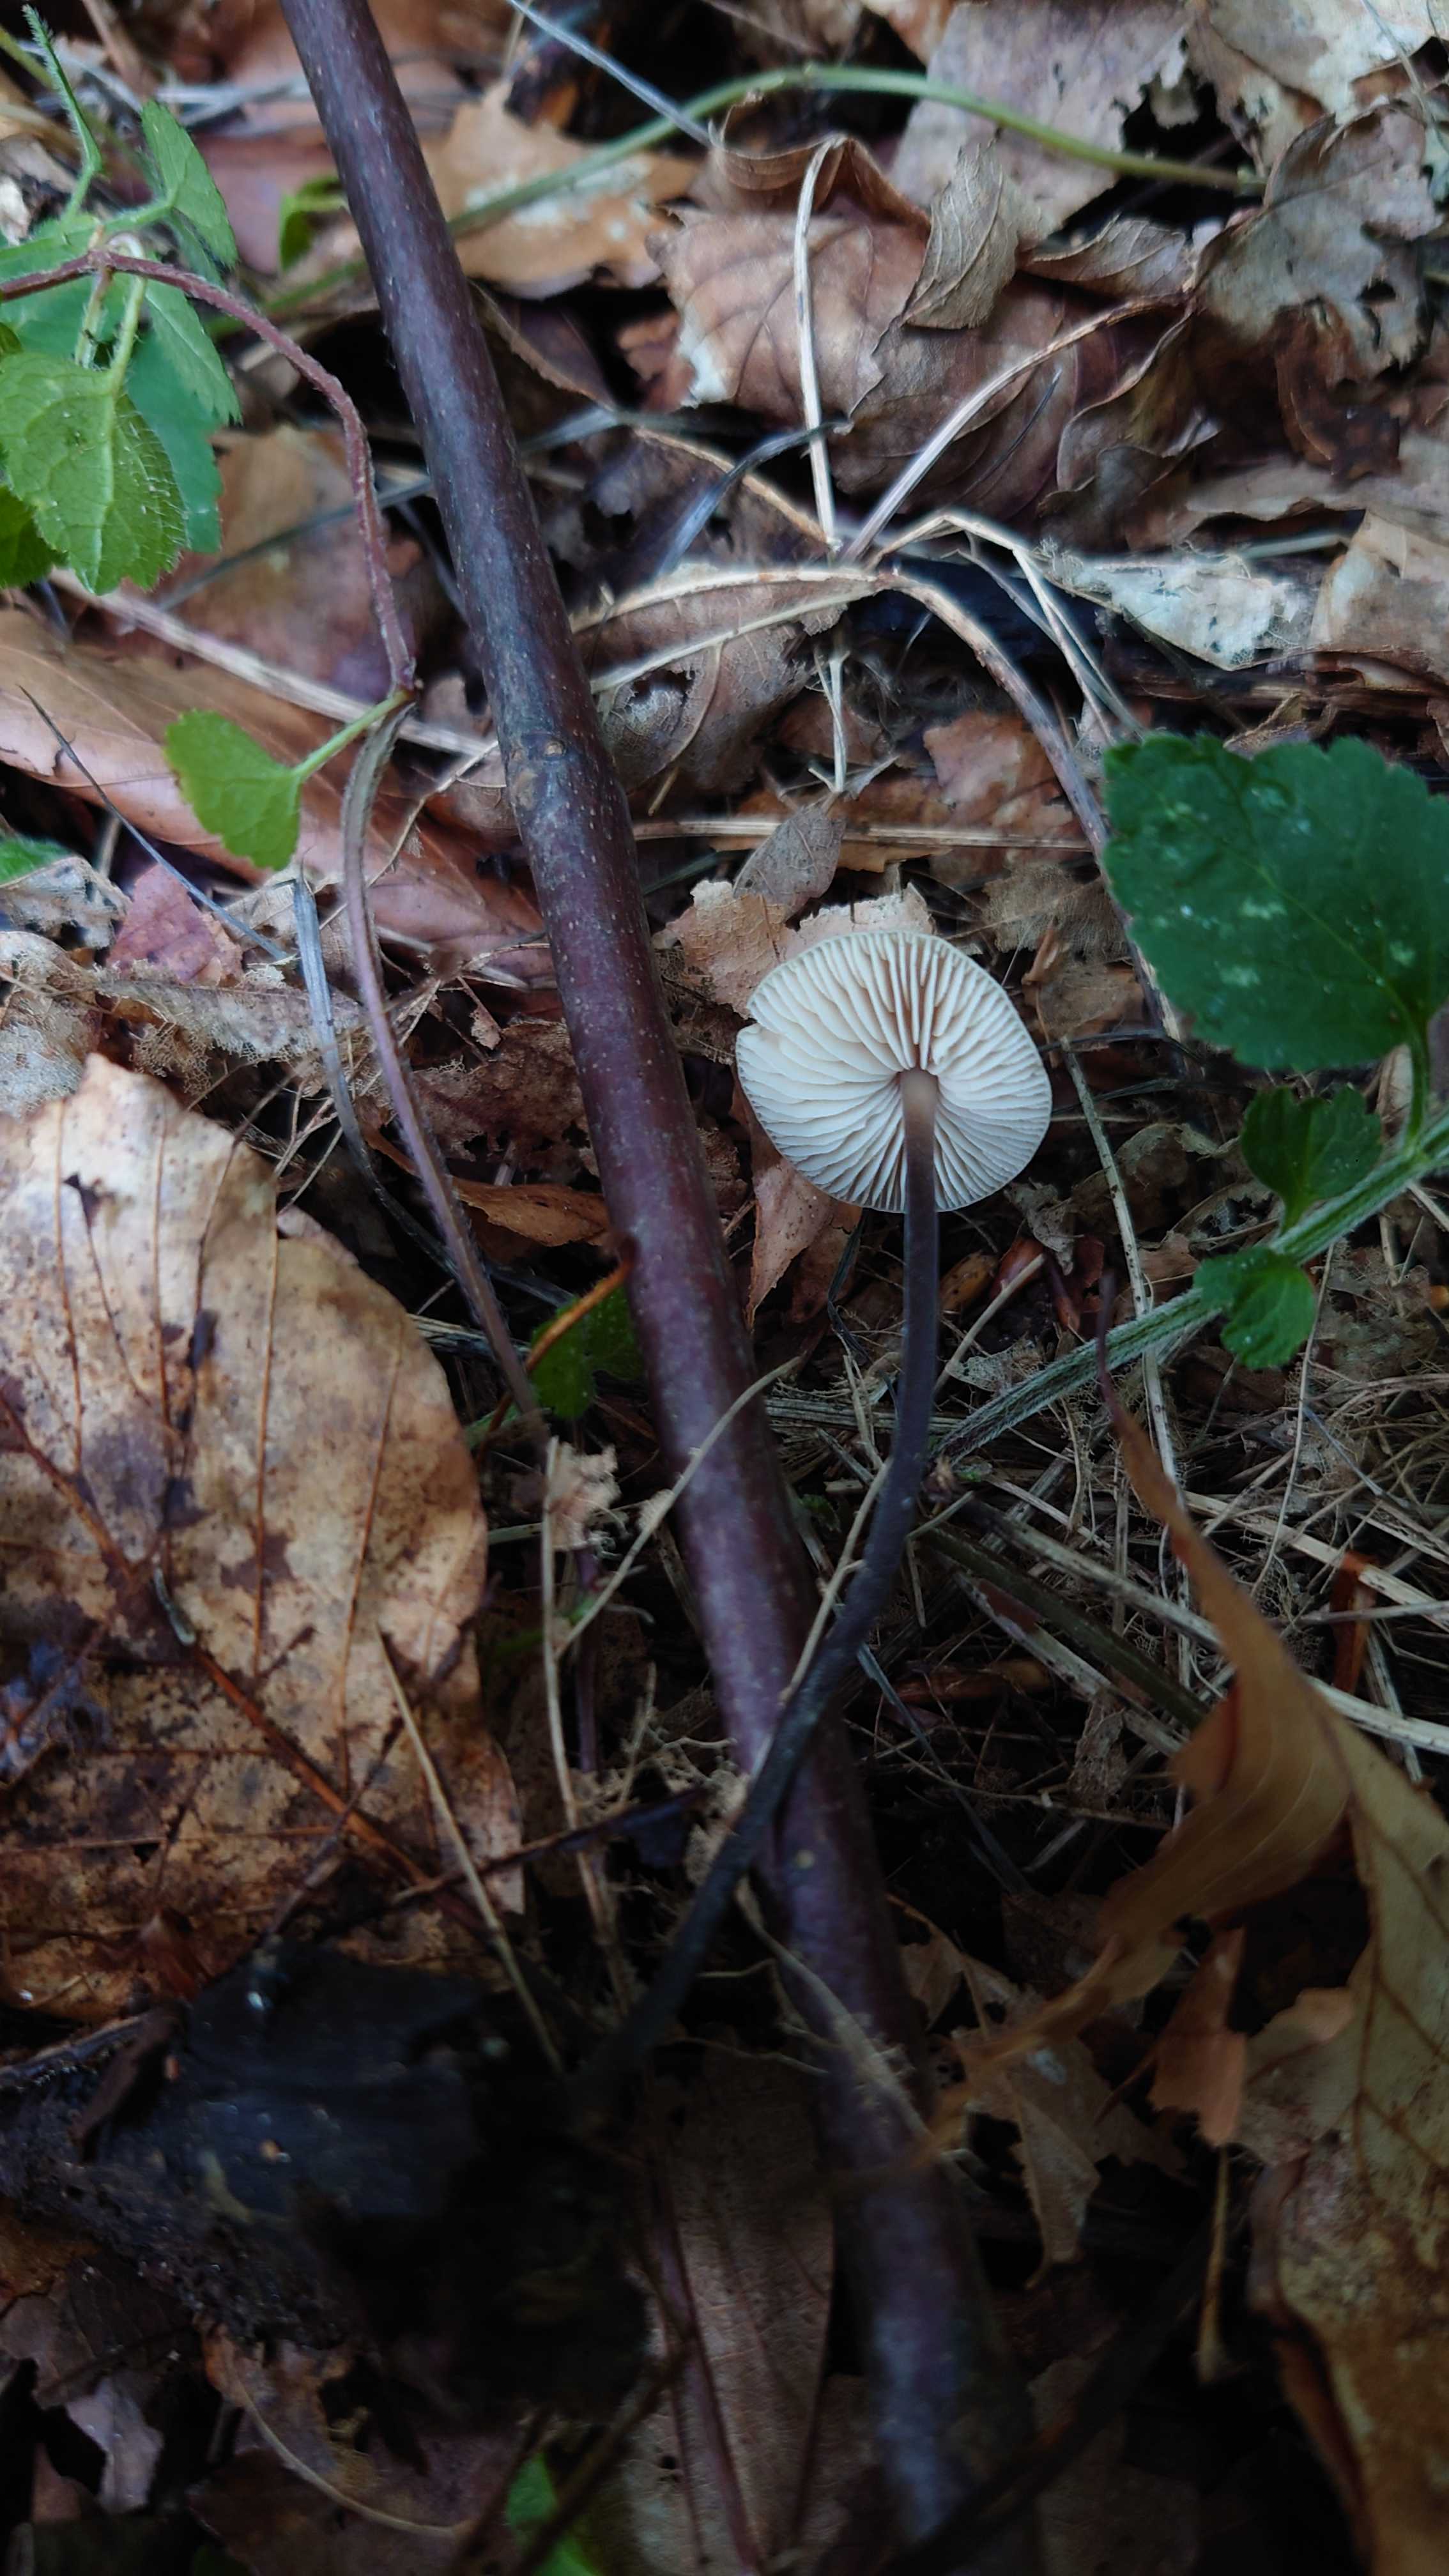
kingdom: Fungi
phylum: Basidiomycota
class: Agaricomycetes
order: Agaricales
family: Omphalotaceae
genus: Mycetinis
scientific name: Mycetinis alliaceus
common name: stor løghat
